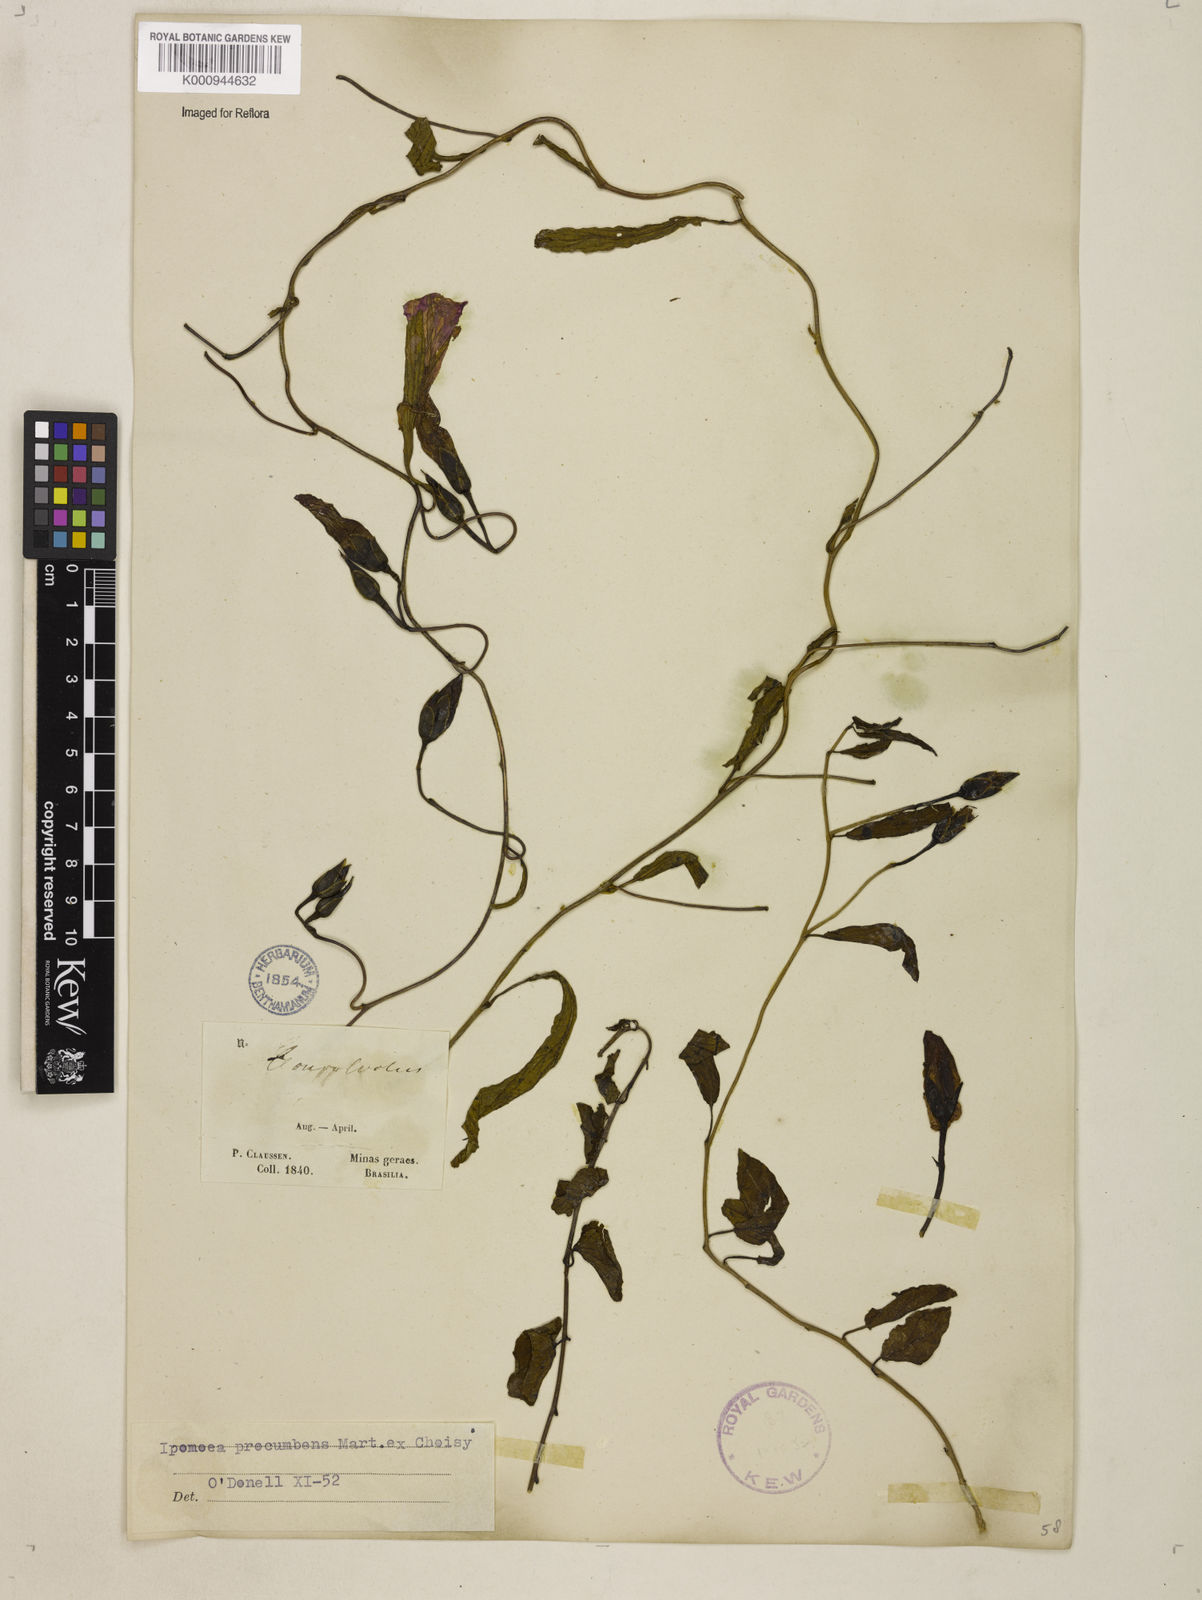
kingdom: Plantae
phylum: Tracheophyta
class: Magnoliopsida
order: Solanales
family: Convolvulaceae
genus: Ipomoea
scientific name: Ipomoea procumbens
